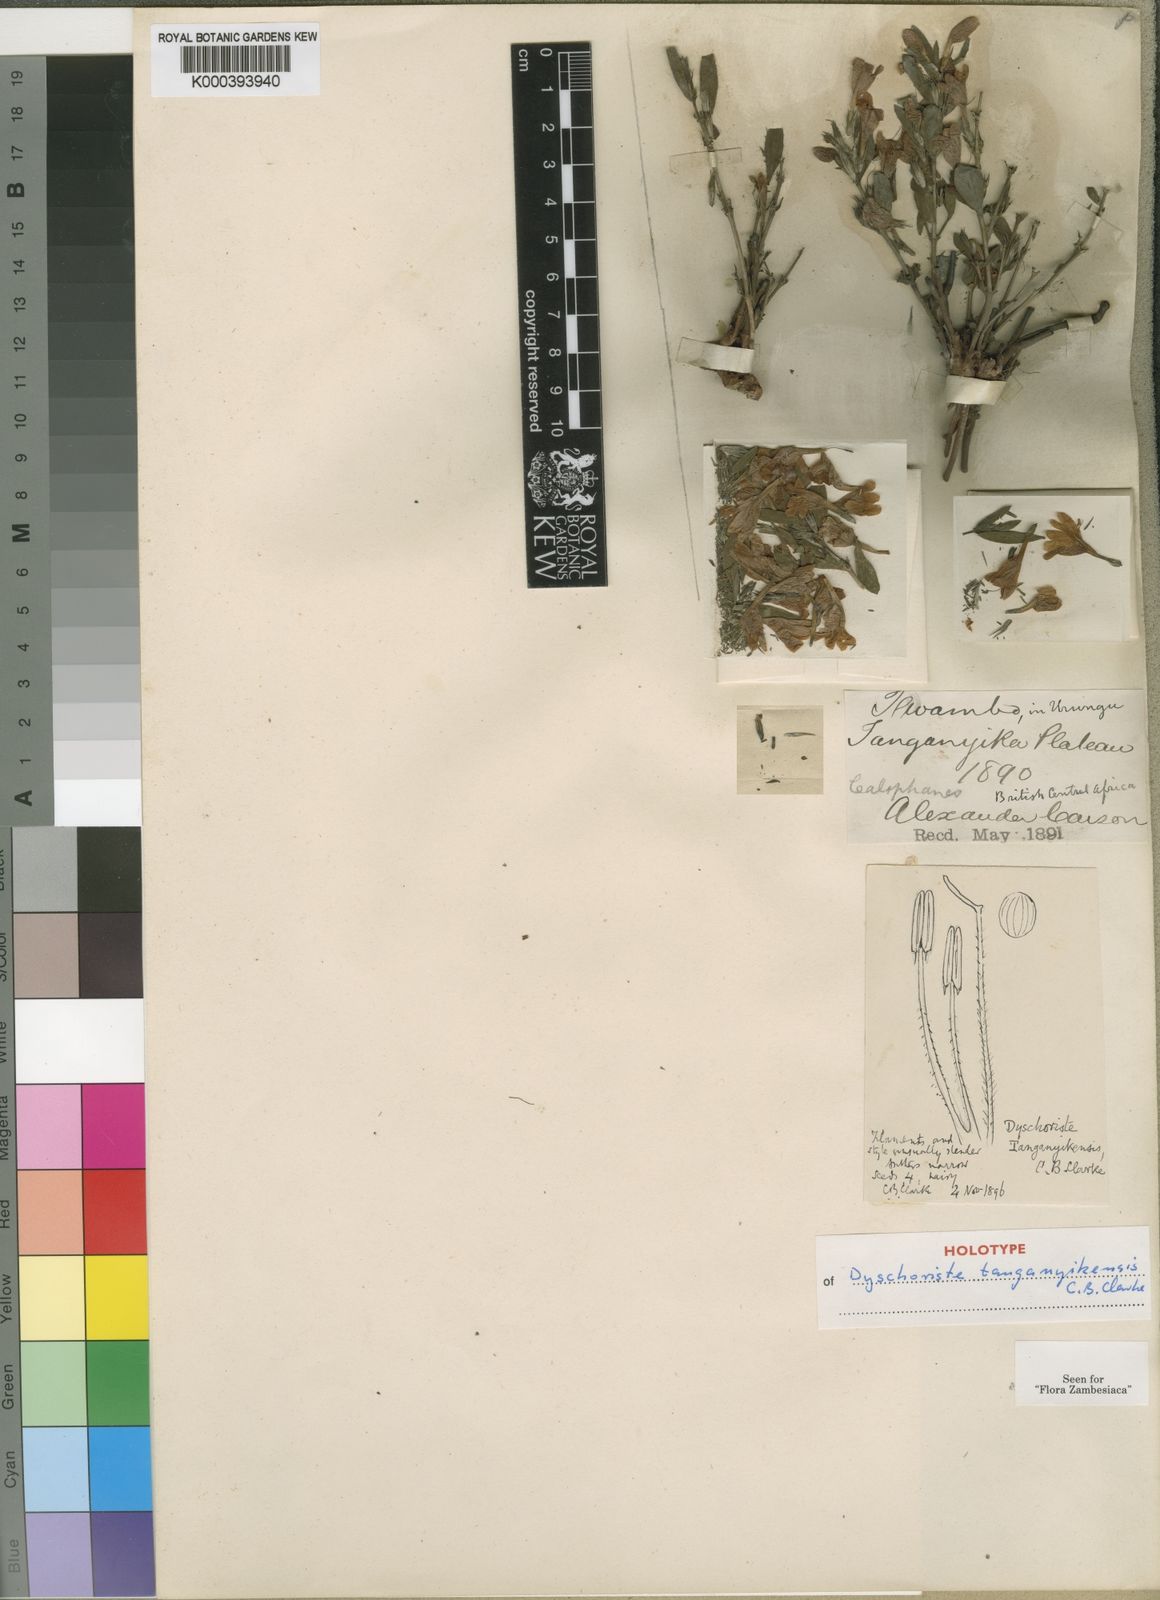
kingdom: Plantae
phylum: Tracheophyta
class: Magnoliopsida
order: Lamiales
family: Acanthaceae
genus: Dyschoriste
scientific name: Dyschoriste tanganyikensis
